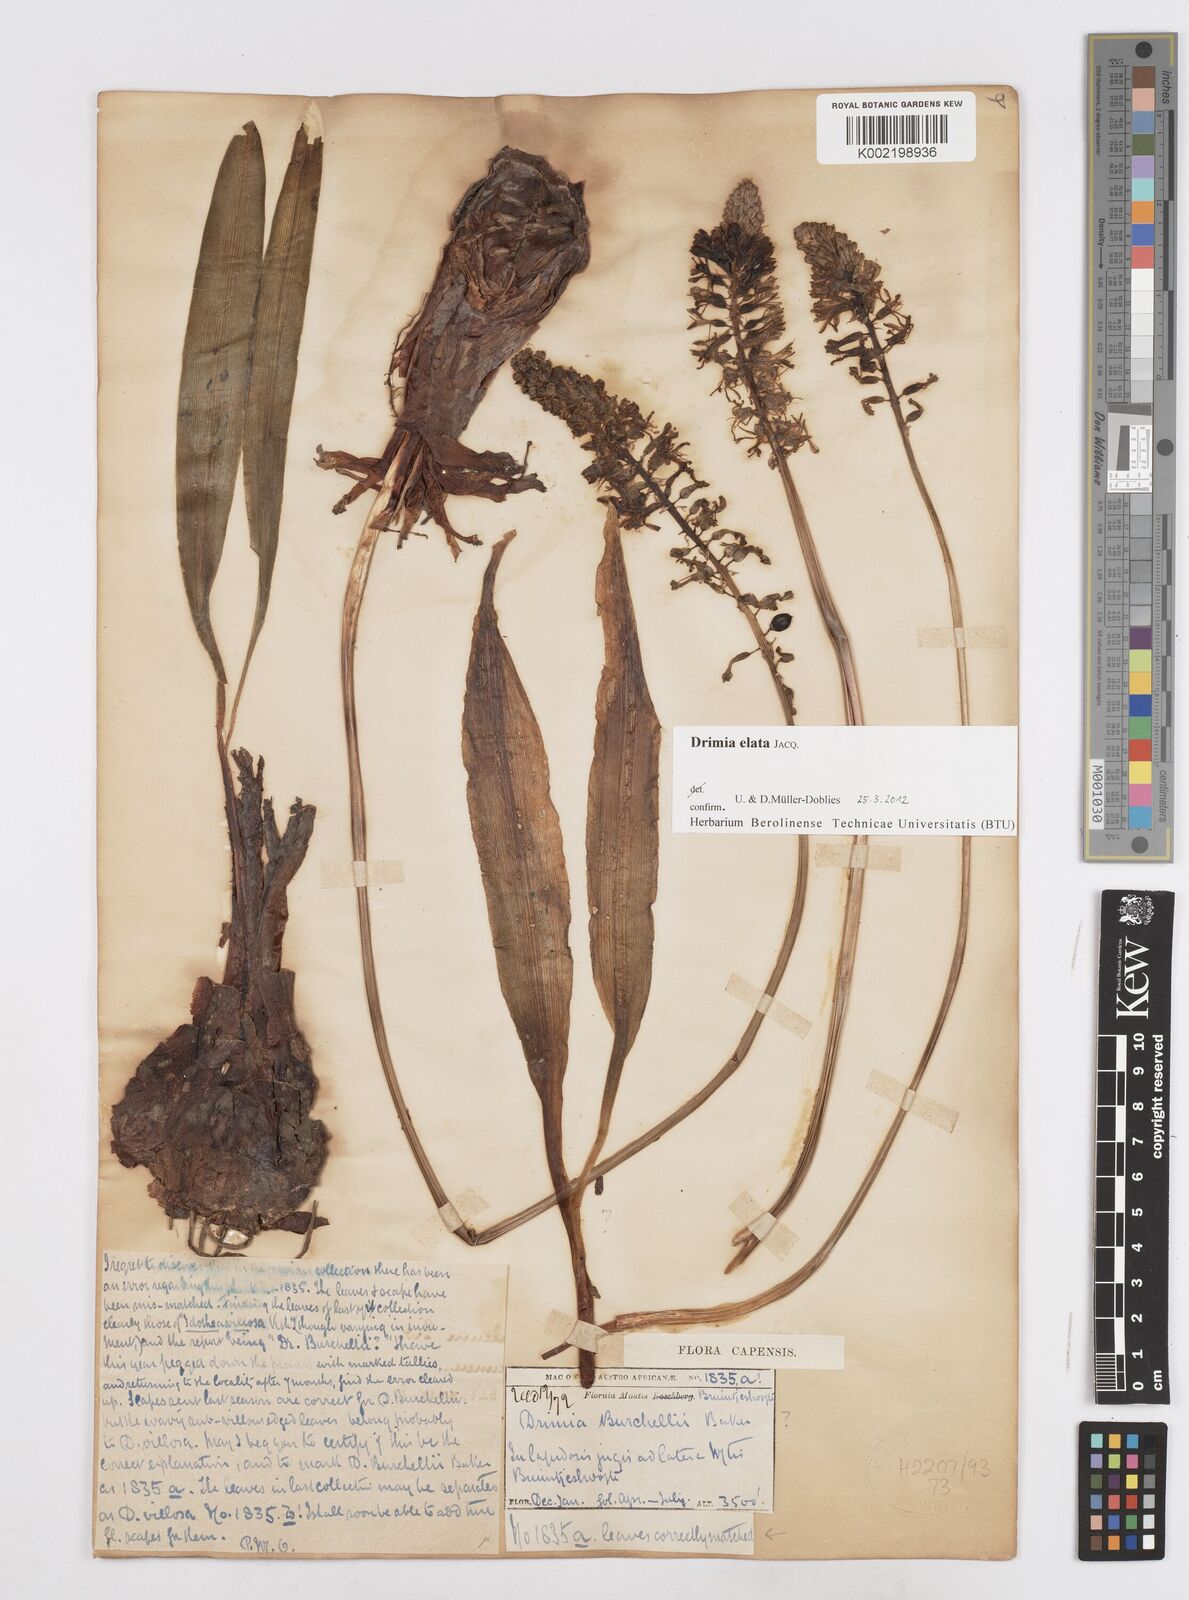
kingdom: Plantae
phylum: Tracheophyta
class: Liliopsida
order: Asparagales
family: Asparagaceae
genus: Drimia
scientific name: Drimia elata
